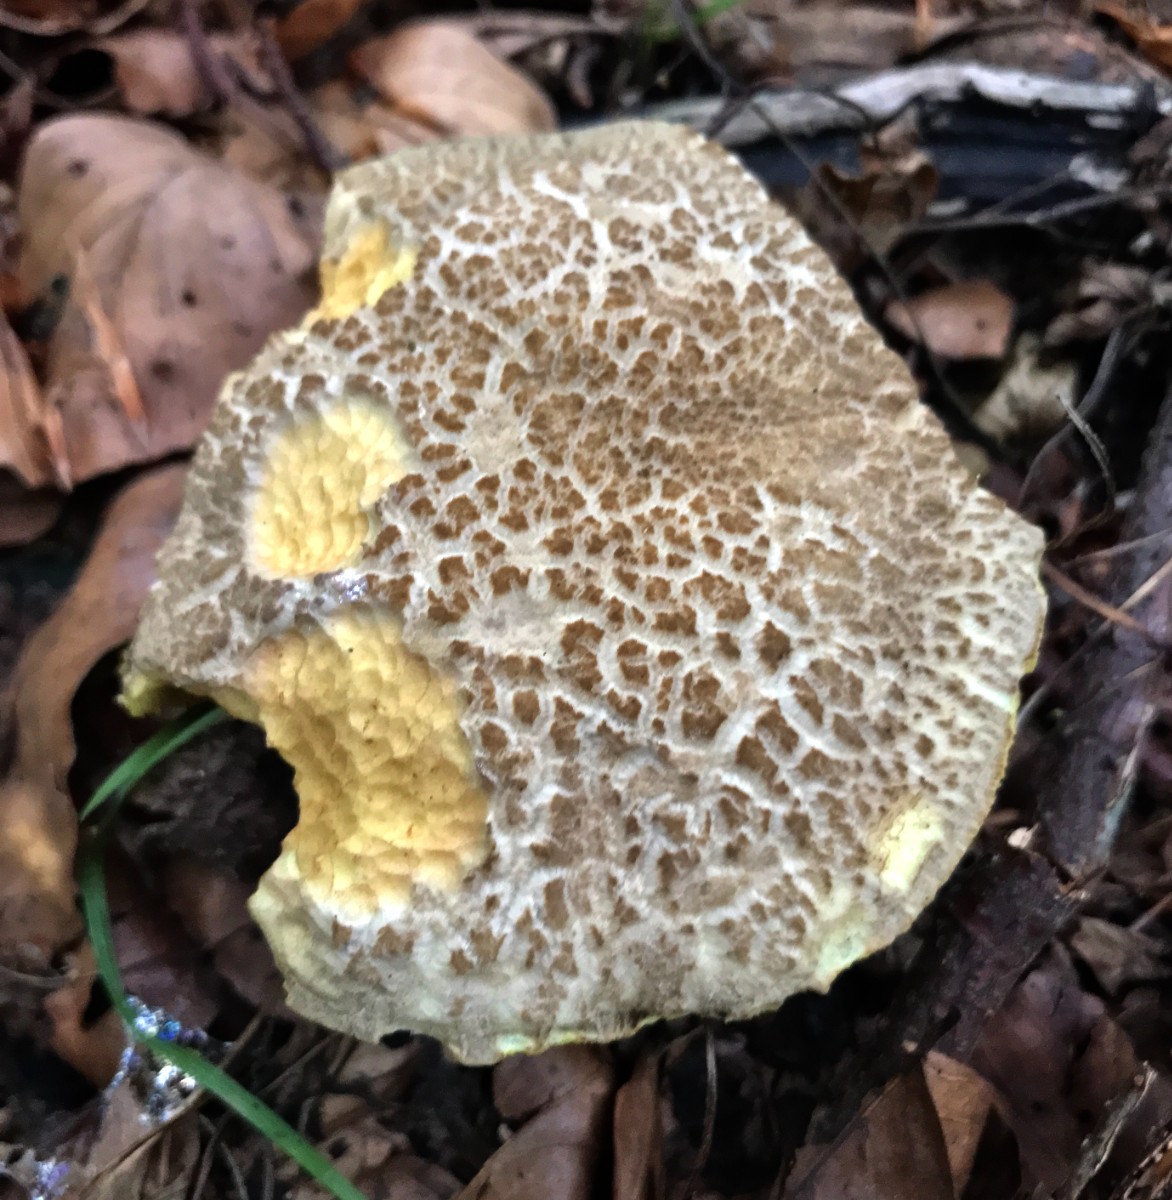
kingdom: Fungi
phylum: Basidiomycota
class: Agaricomycetes
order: Boletales
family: Boletaceae
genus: Xerocomellus
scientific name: Xerocomellus porosporus
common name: hvidsprukken rørhat
